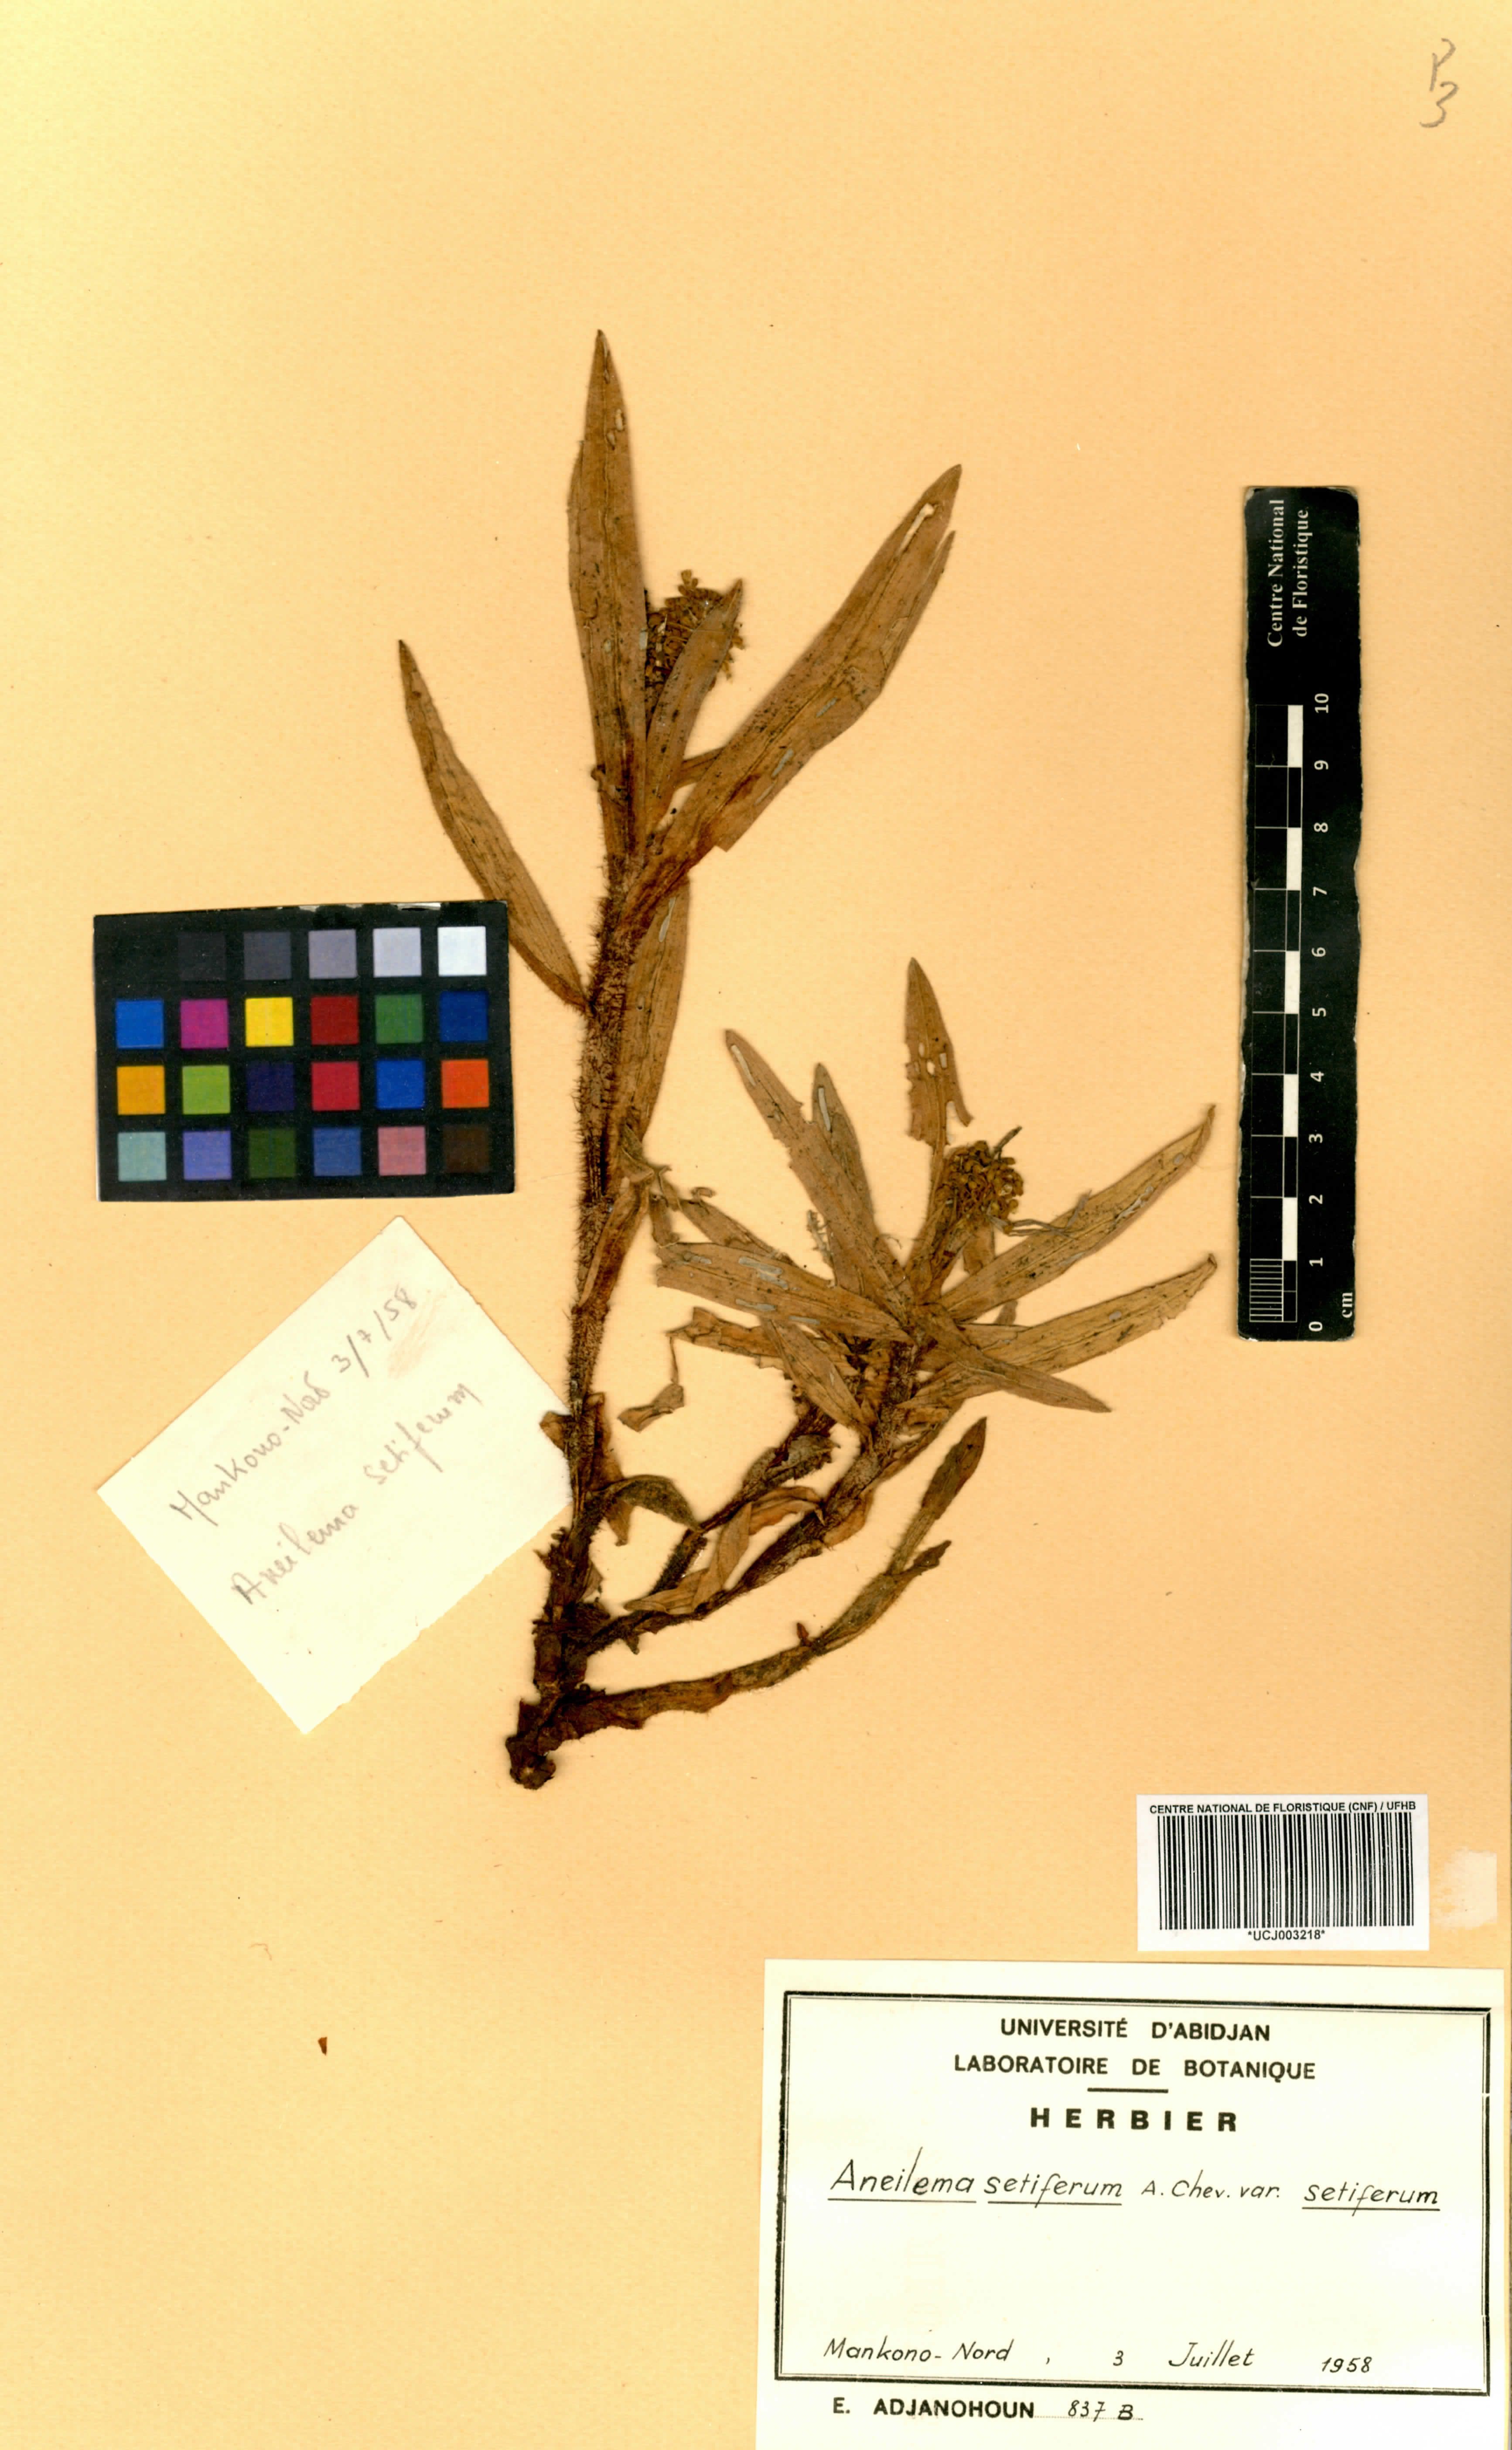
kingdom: Plantae
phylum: Tracheophyta
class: Liliopsida
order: Commelinales
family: Commelinaceae
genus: Aneilema
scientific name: Aneilema setiferum
